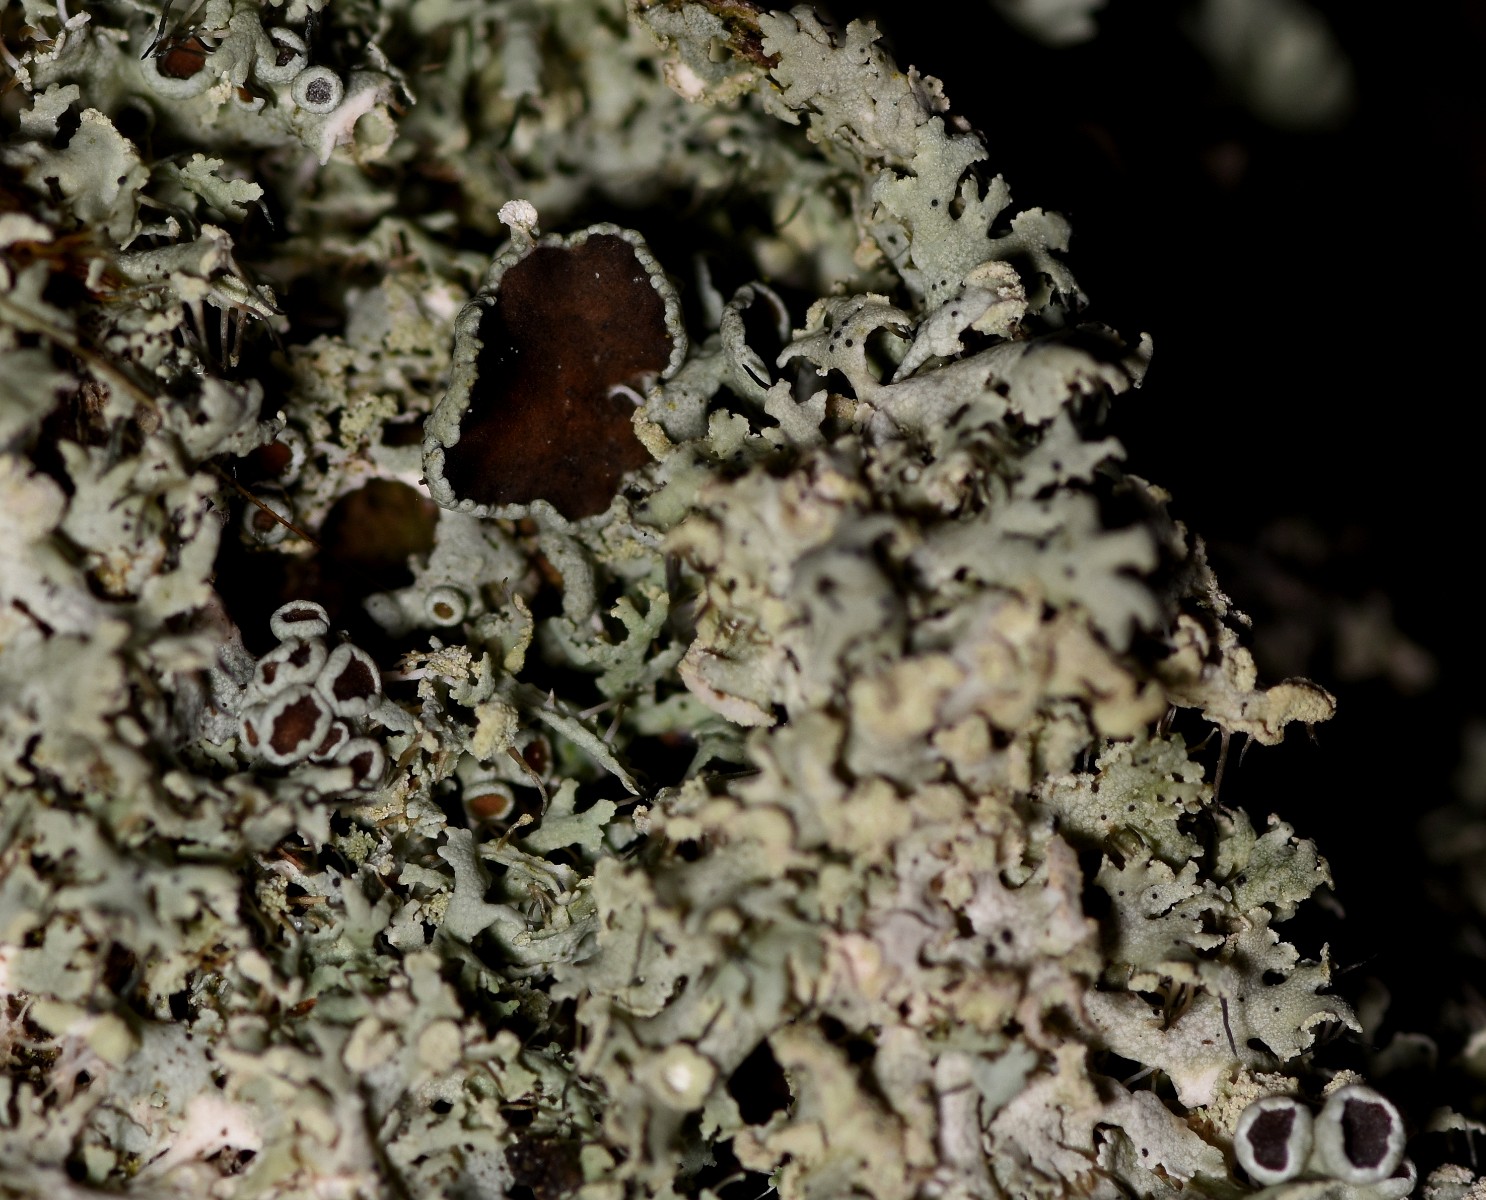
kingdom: Fungi
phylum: Ascomycota
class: Lecanoromycetes
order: Caliciales
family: Physciaceae
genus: Physcia
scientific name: Physcia tenella
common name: spæd rosetlav
